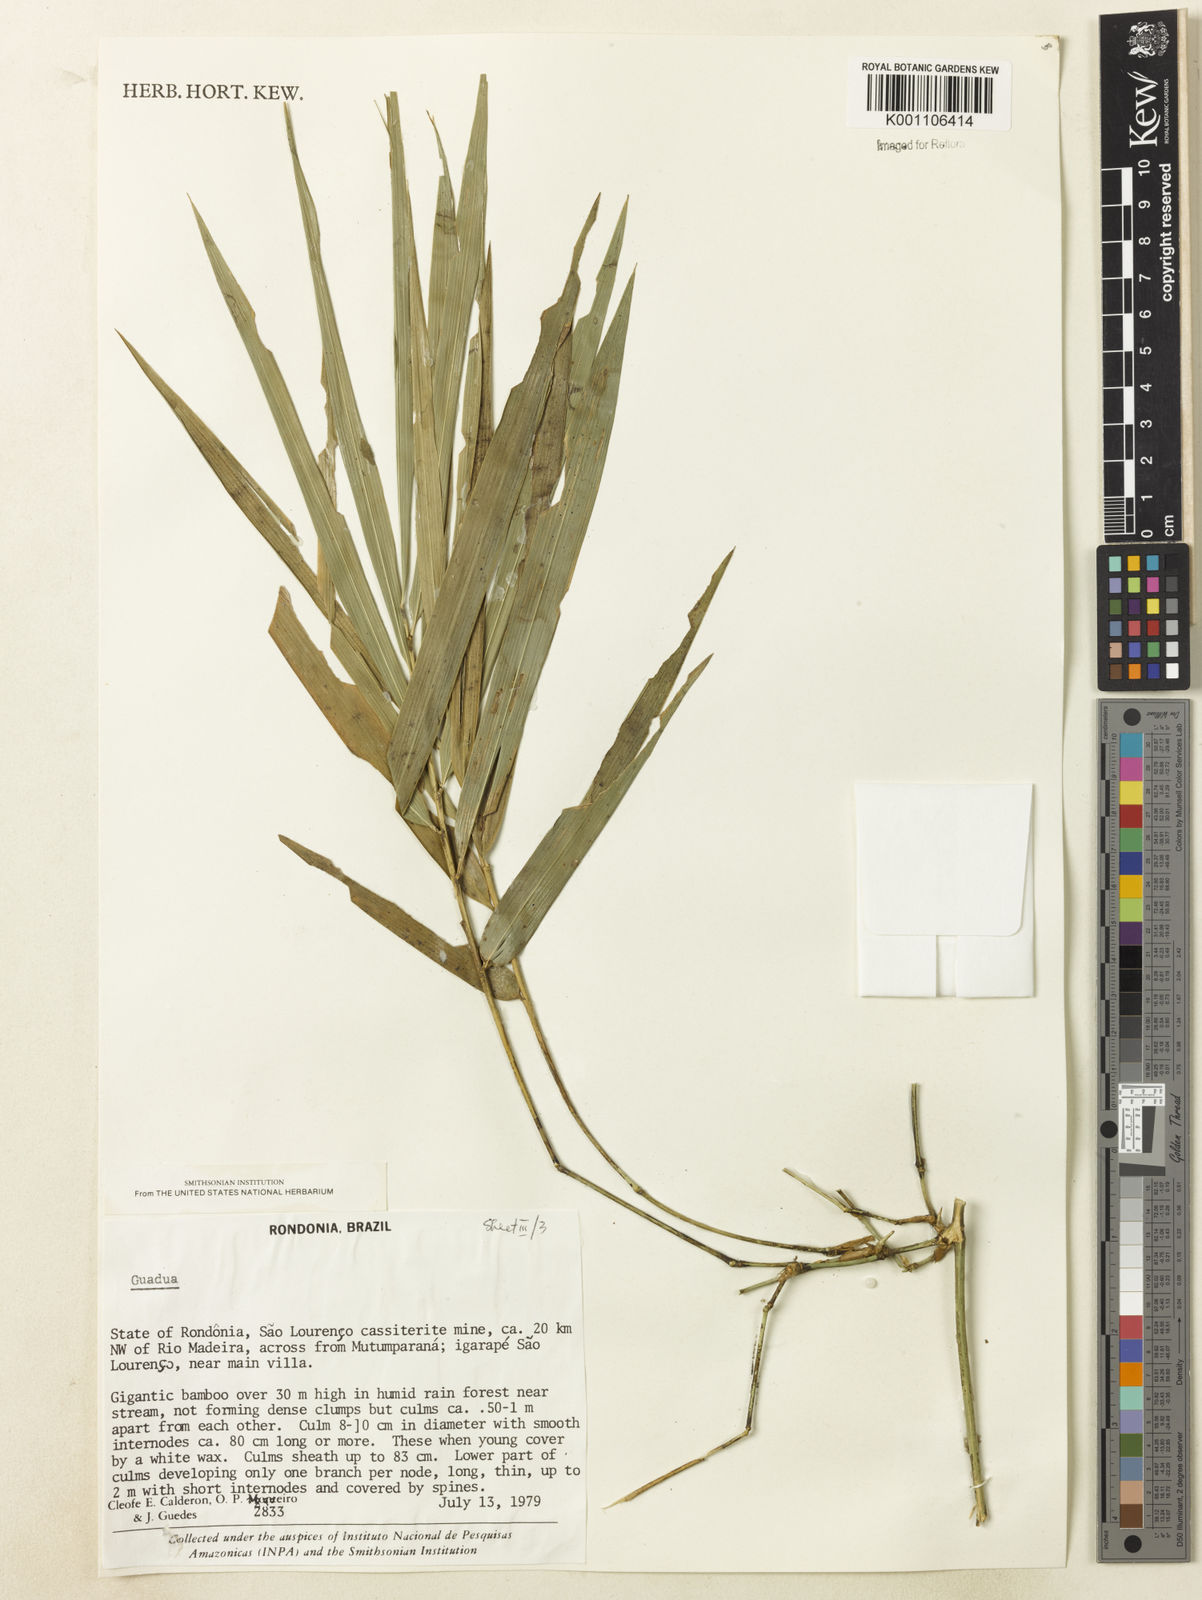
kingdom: Plantae
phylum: Tracheophyta
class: Liliopsida
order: Poales
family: Poaceae
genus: Guadua
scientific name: Guadua
